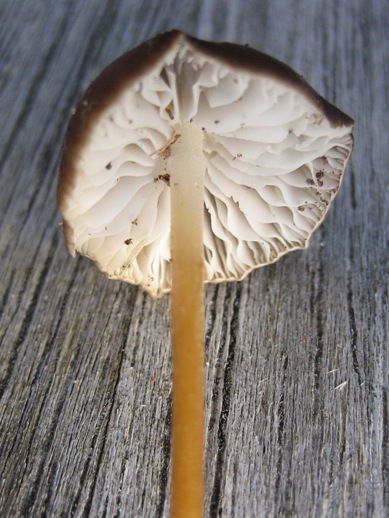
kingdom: Fungi
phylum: Basidiomycota
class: Agaricomycetes
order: Agaricales
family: Physalacriaceae
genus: Strobilurus
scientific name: Strobilurus esculentus
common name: gran-koglehat
